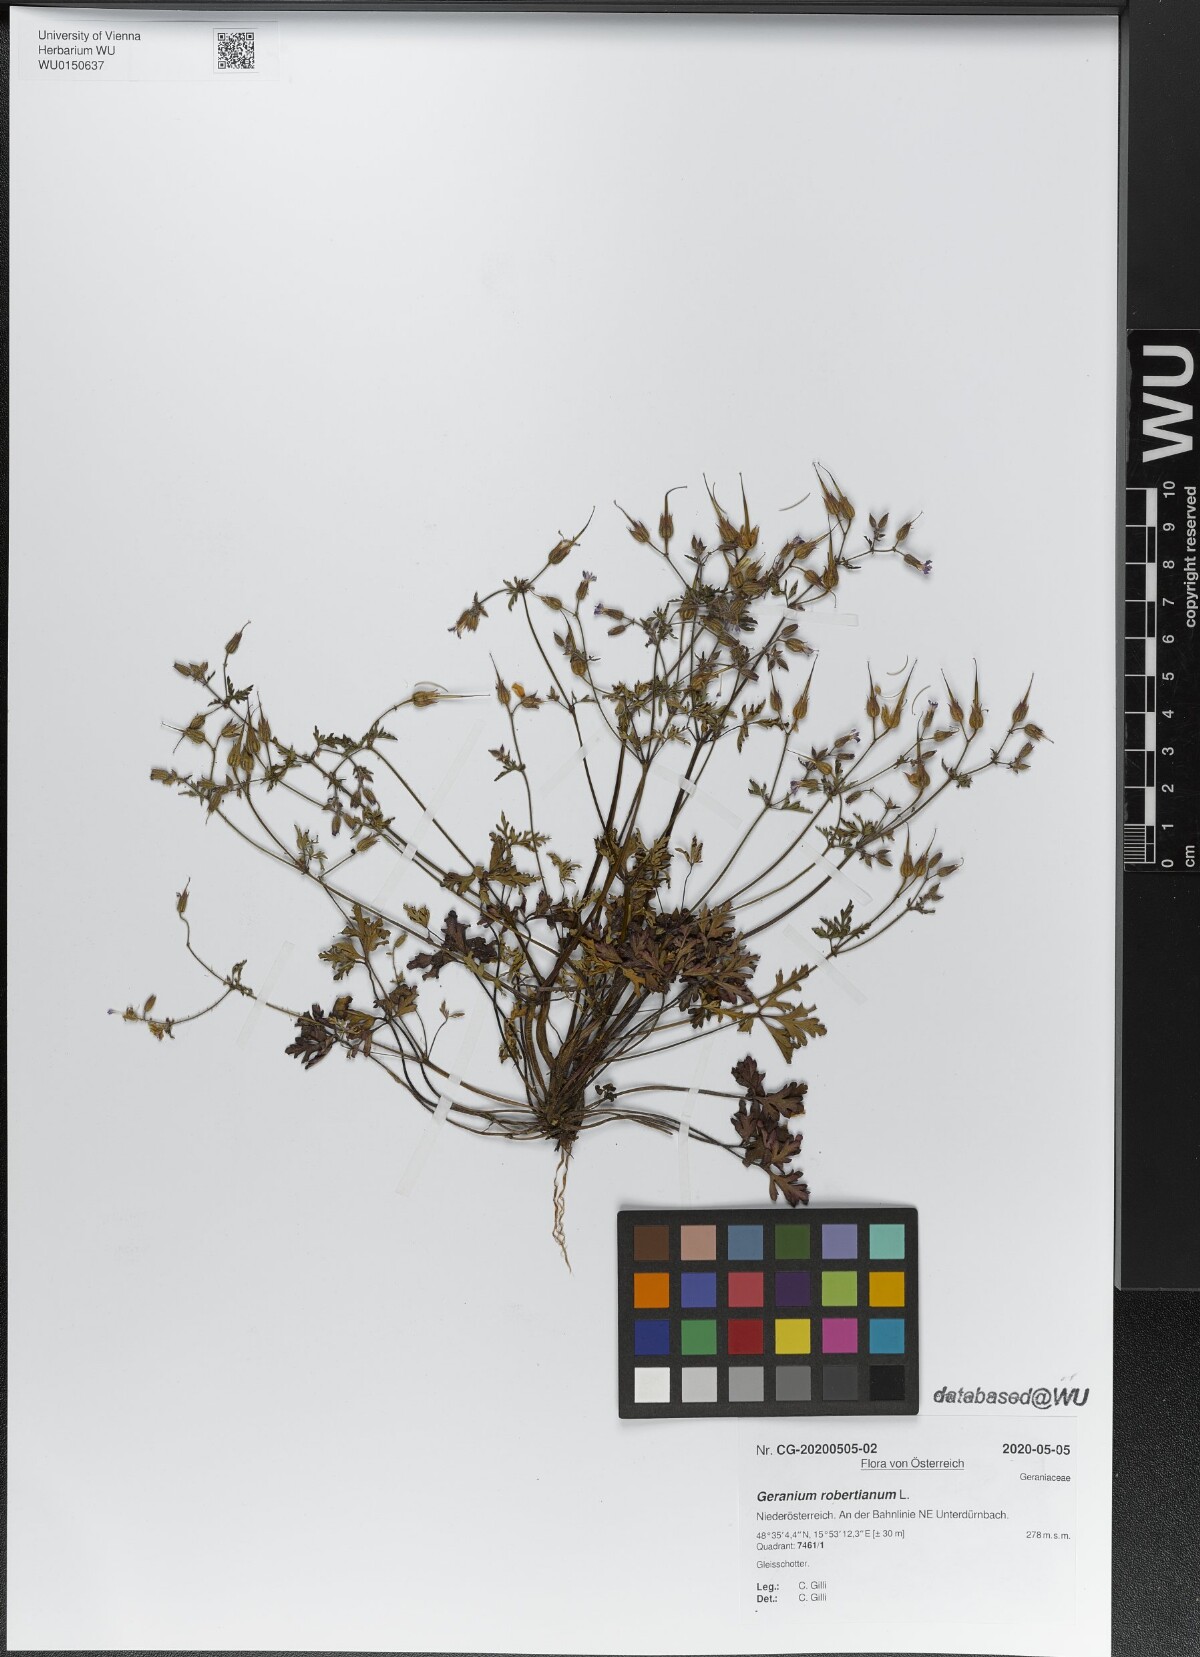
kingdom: Plantae
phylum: Tracheophyta
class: Magnoliopsida
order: Geraniales
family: Geraniaceae
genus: Geranium
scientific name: Geranium robertianum
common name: Herb-robert
